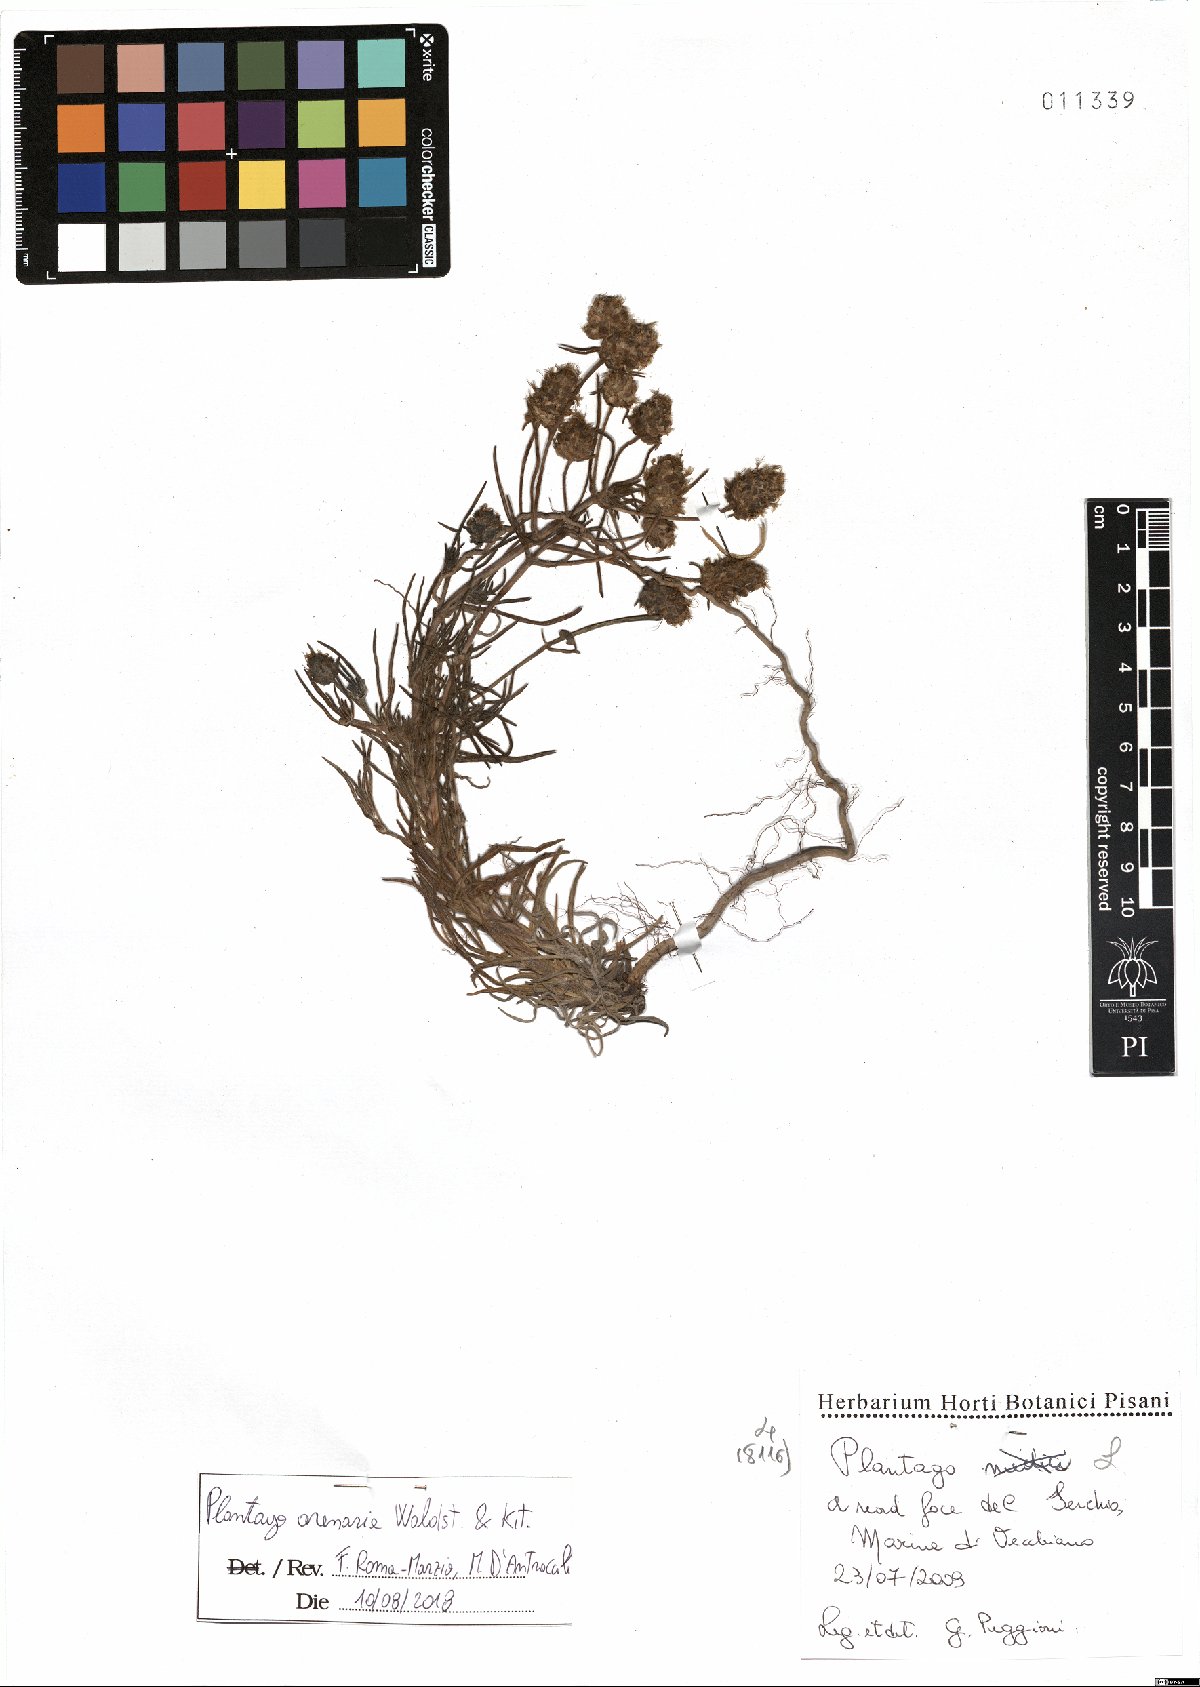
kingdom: Plantae
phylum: Tracheophyta
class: Magnoliopsida
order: Lamiales
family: Plantaginaceae
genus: Plantago
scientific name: Plantago arenaria
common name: Branched plantain
